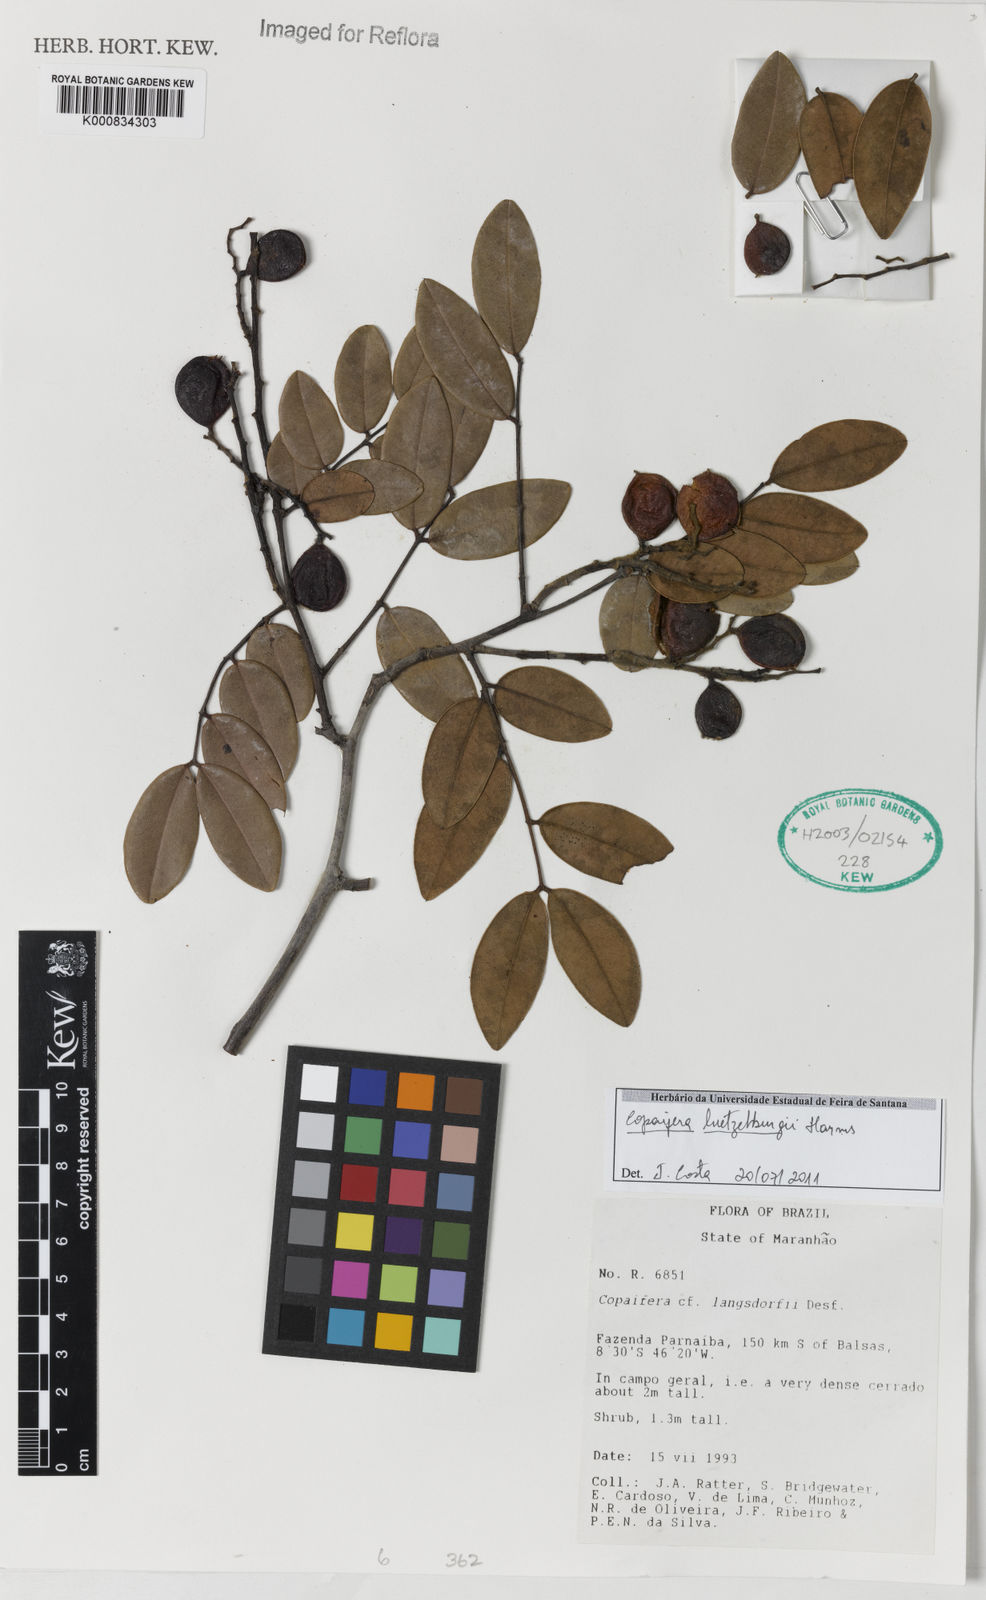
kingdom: Plantae
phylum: Tracheophyta
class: Magnoliopsida
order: Fabales
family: Fabaceae
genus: Copaifera
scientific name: Copaifera luetzelburgii
